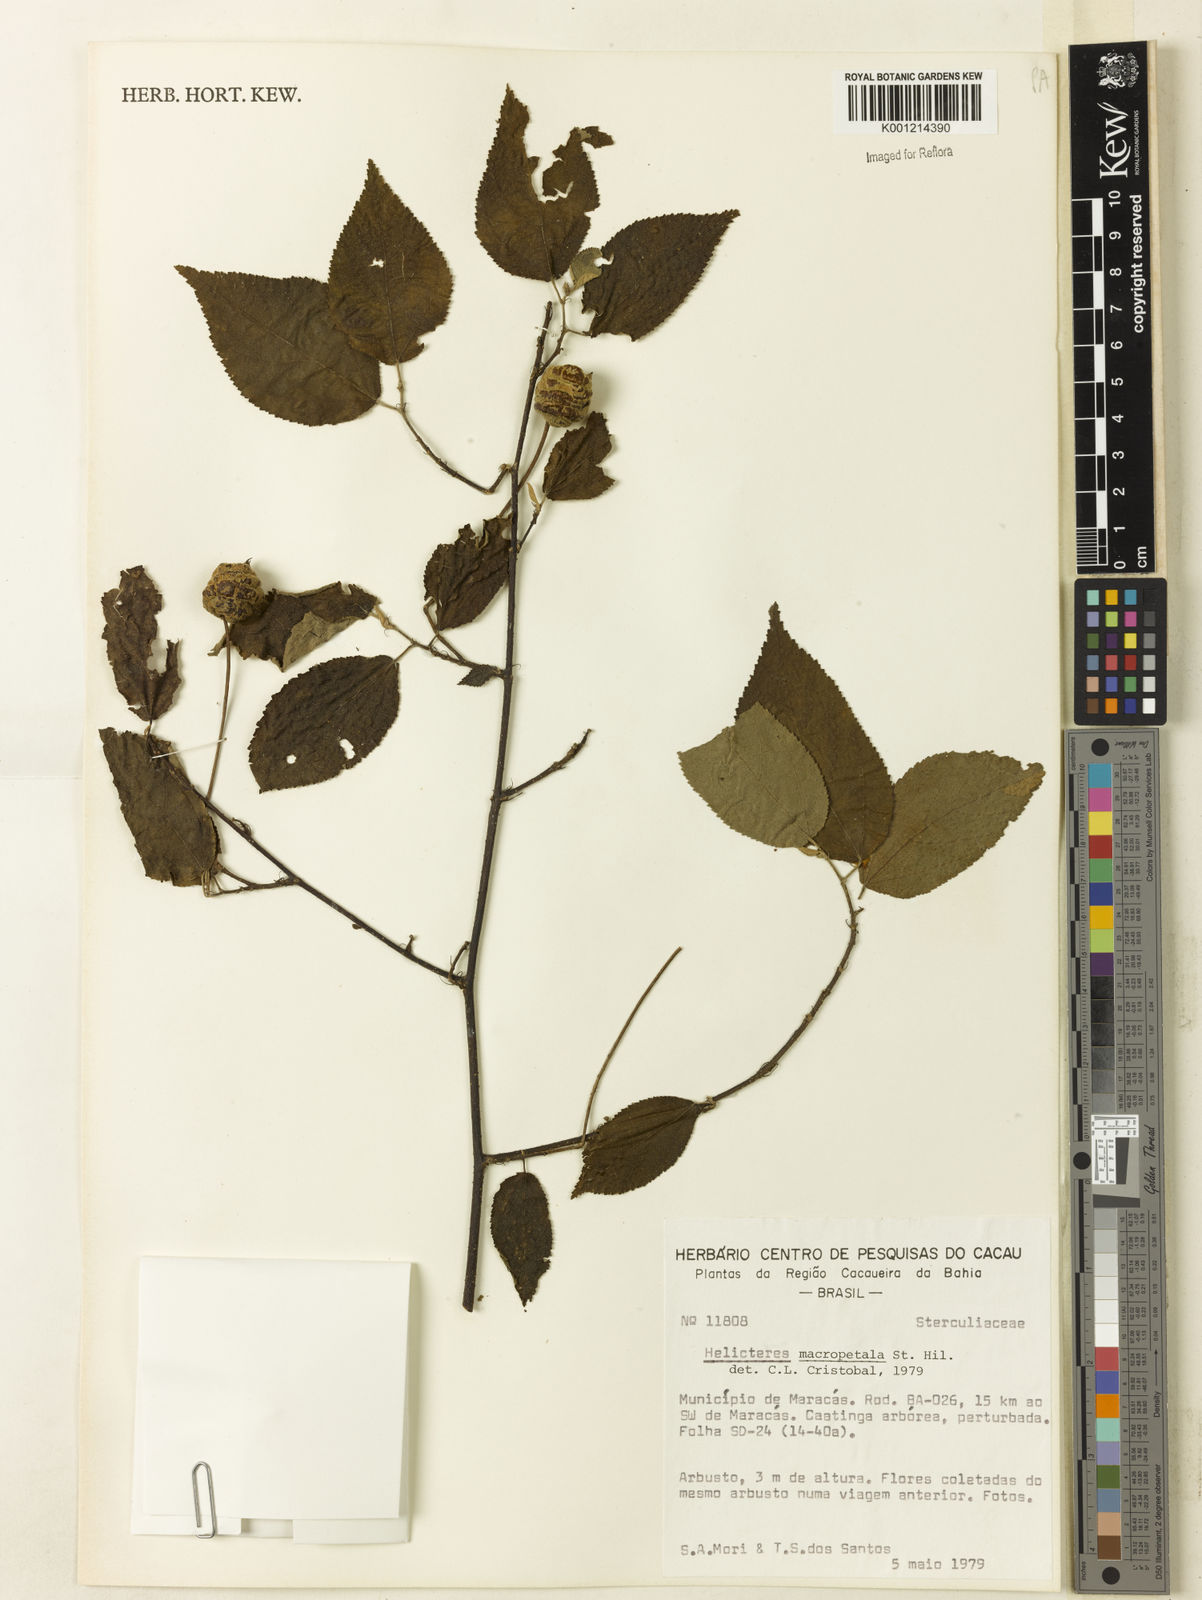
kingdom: Plantae
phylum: Tracheophyta
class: Magnoliopsida
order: Malvales
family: Malvaceae
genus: Helicteres
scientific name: Helicteres
